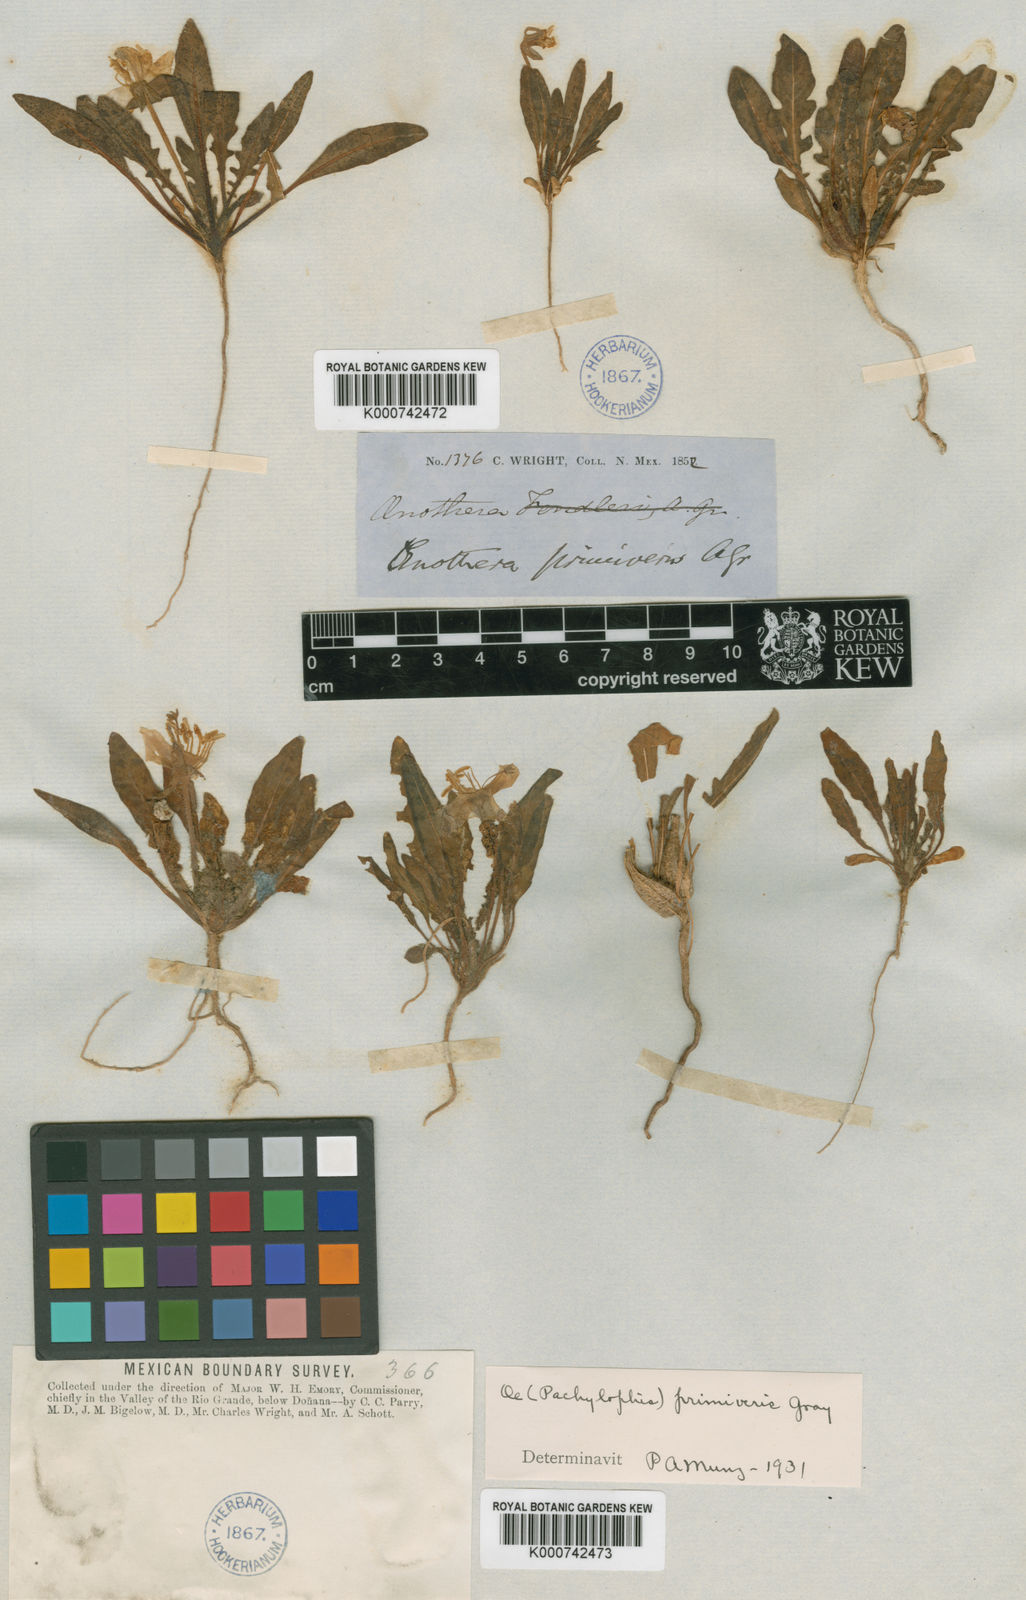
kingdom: Plantae
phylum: Tracheophyta
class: Magnoliopsida
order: Myrtales
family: Onagraceae
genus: Oenothera
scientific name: Oenothera primiveris
